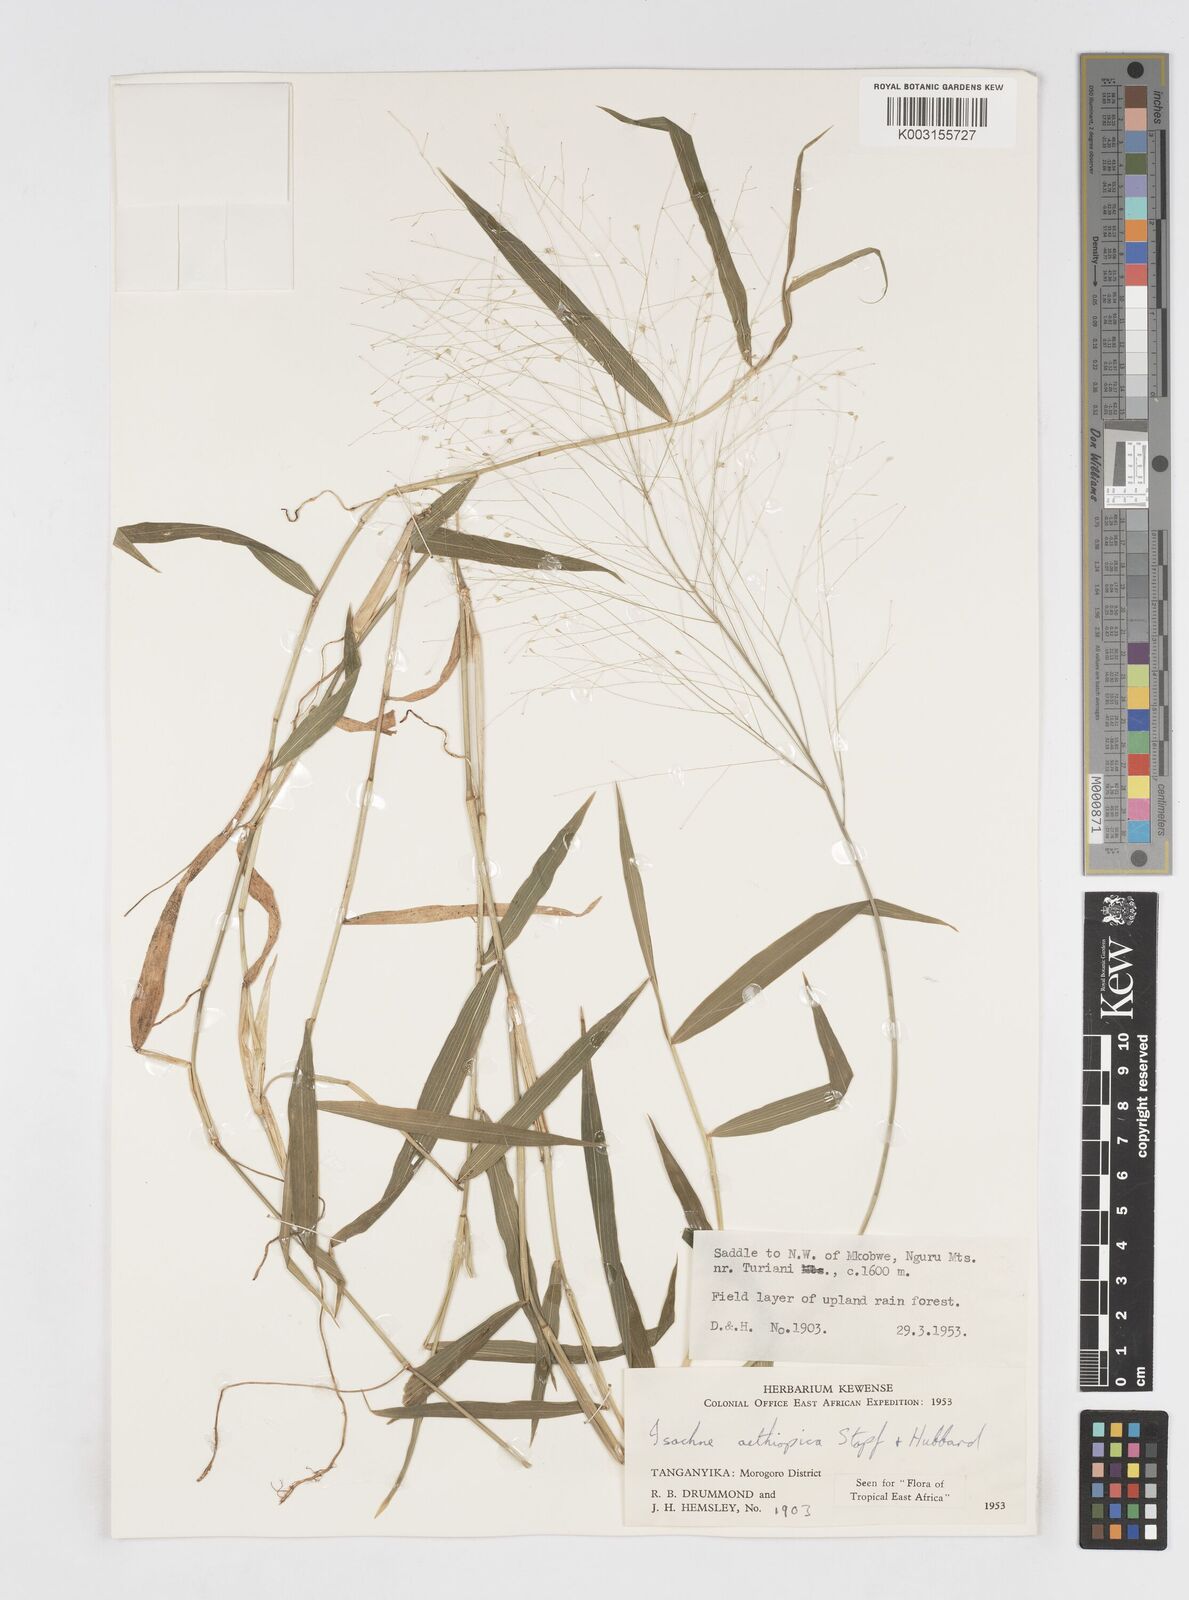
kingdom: Plantae
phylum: Tracheophyta
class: Liliopsida
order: Poales
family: Poaceae
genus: Isachne
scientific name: Isachne mauritiana
